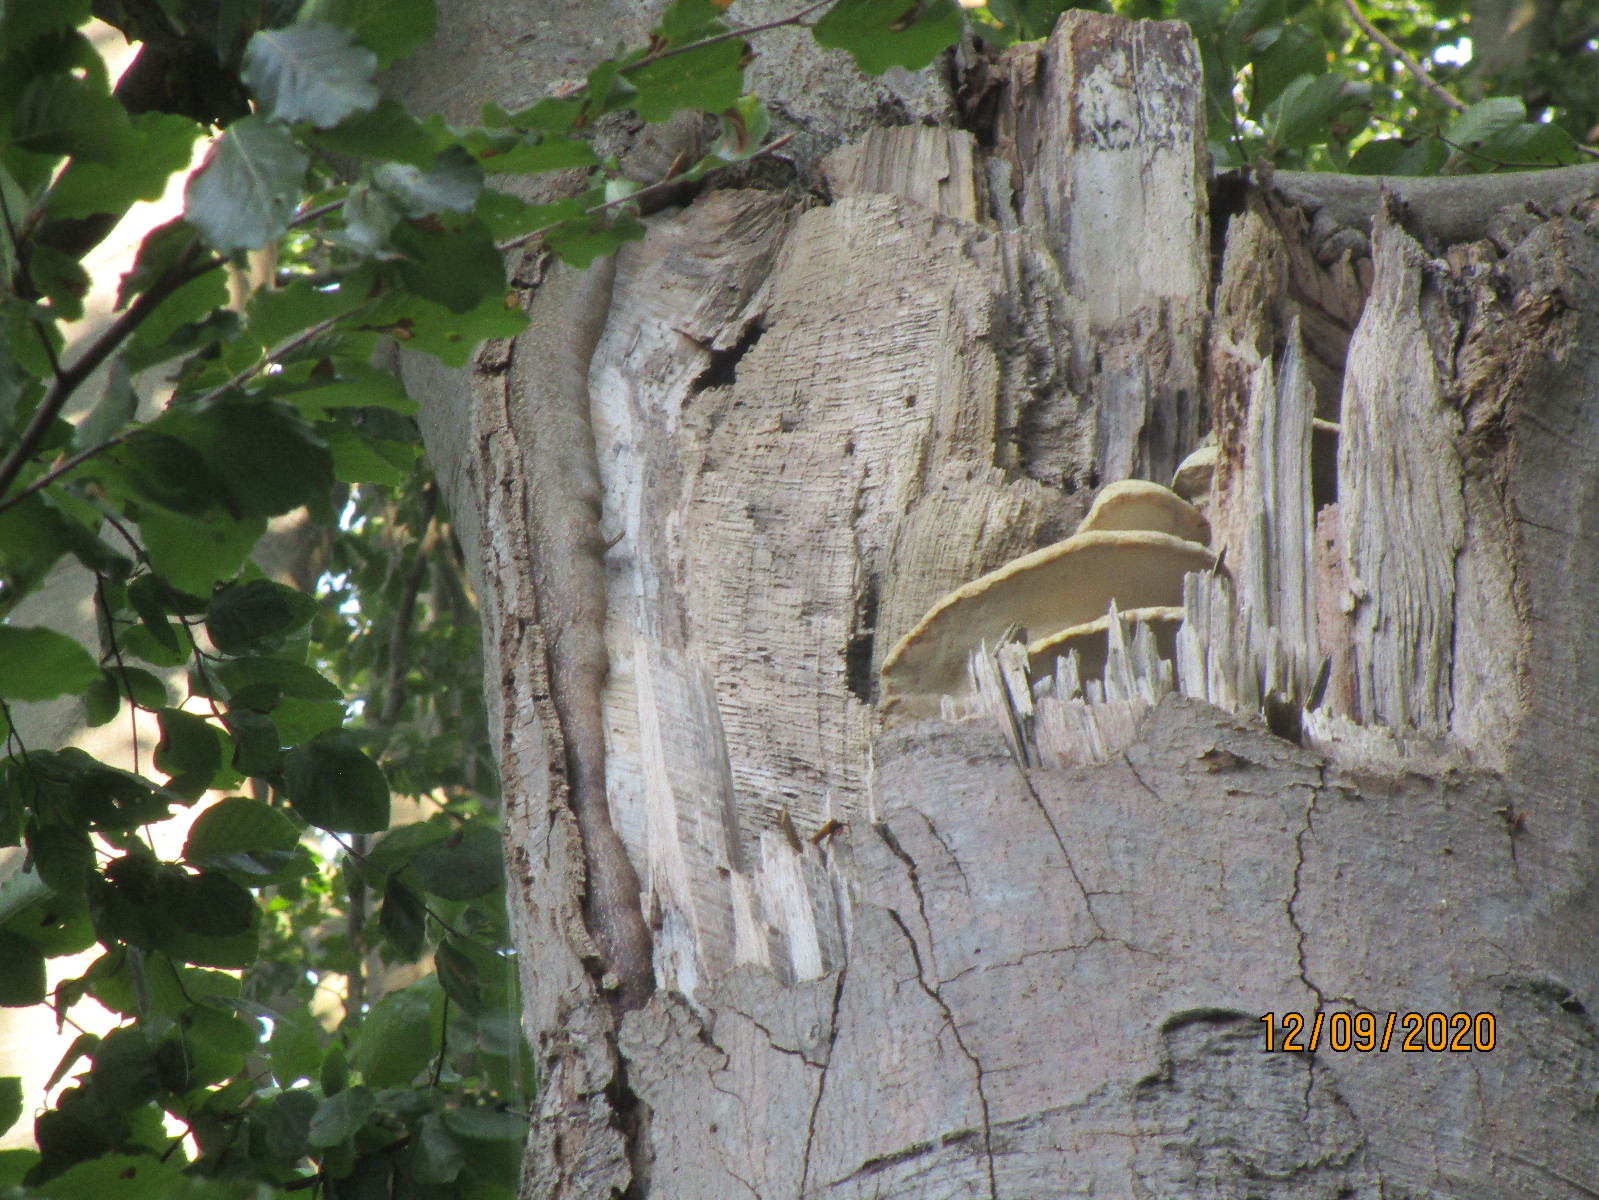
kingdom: Fungi
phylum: Basidiomycota
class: Agaricomycetes
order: Polyporales
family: Meruliaceae
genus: Pappia
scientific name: Pappia fissilis
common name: sej fedtporesvamp
